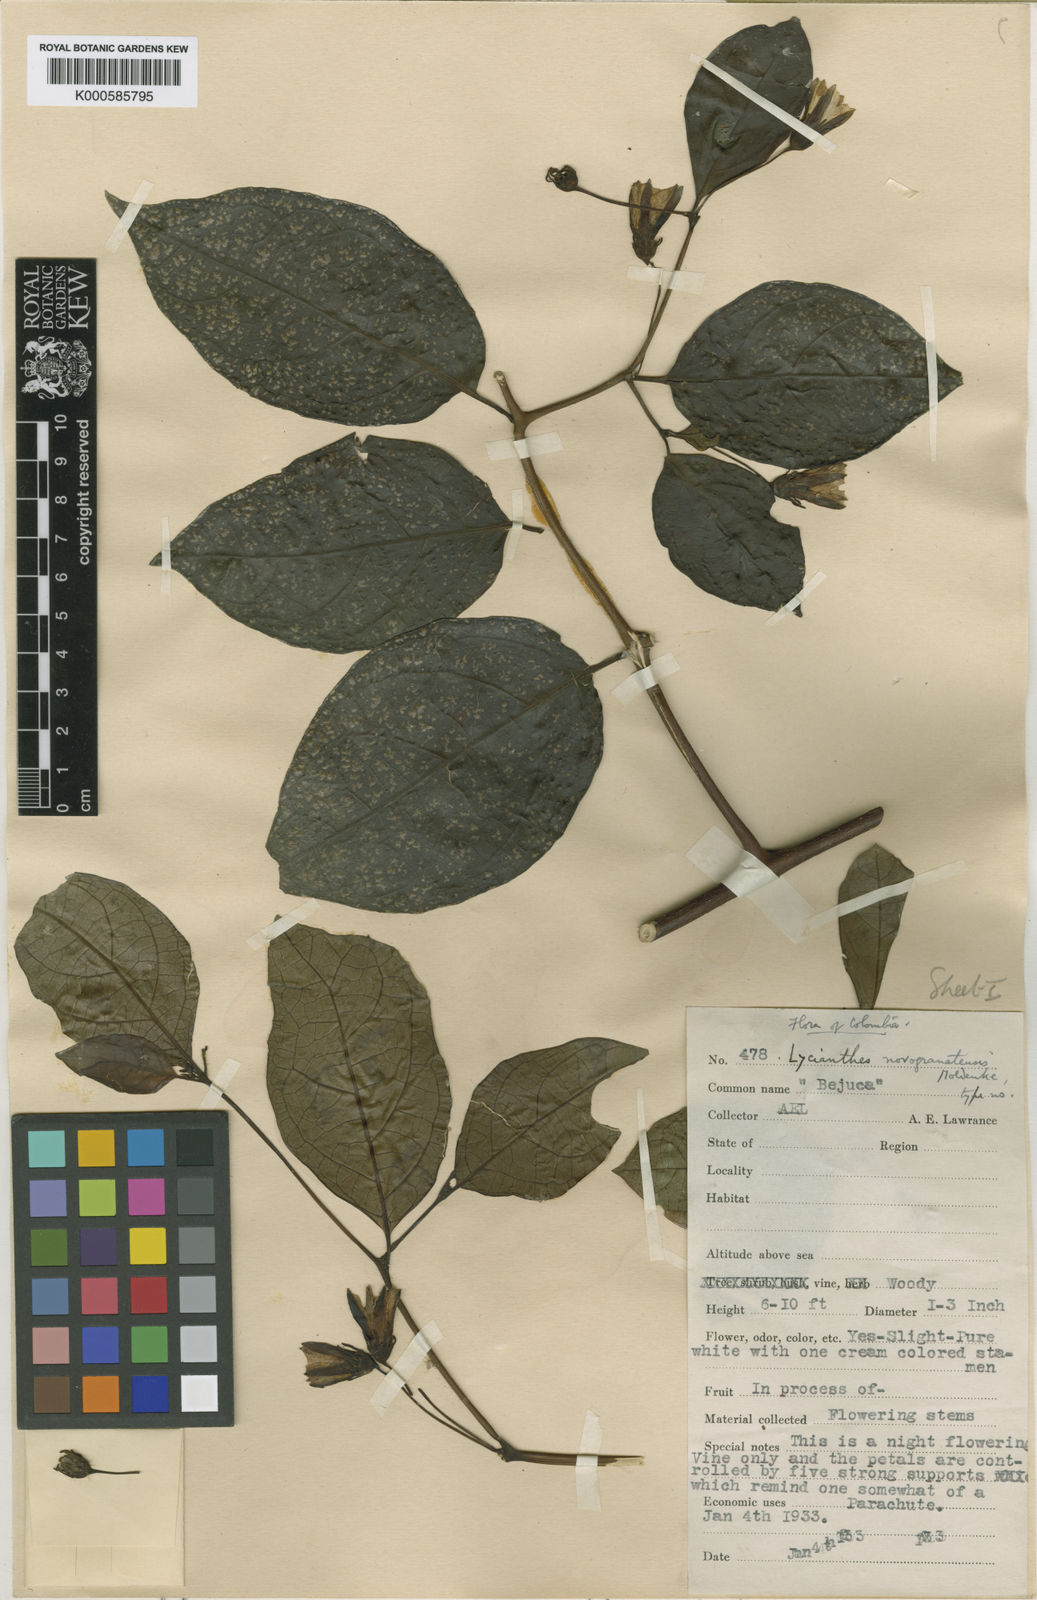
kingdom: Plantae
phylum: Tracheophyta
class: Magnoliopsida
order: Solanales
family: Solanaceae
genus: Lycianthes
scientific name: Lycianthes novogranatensis
